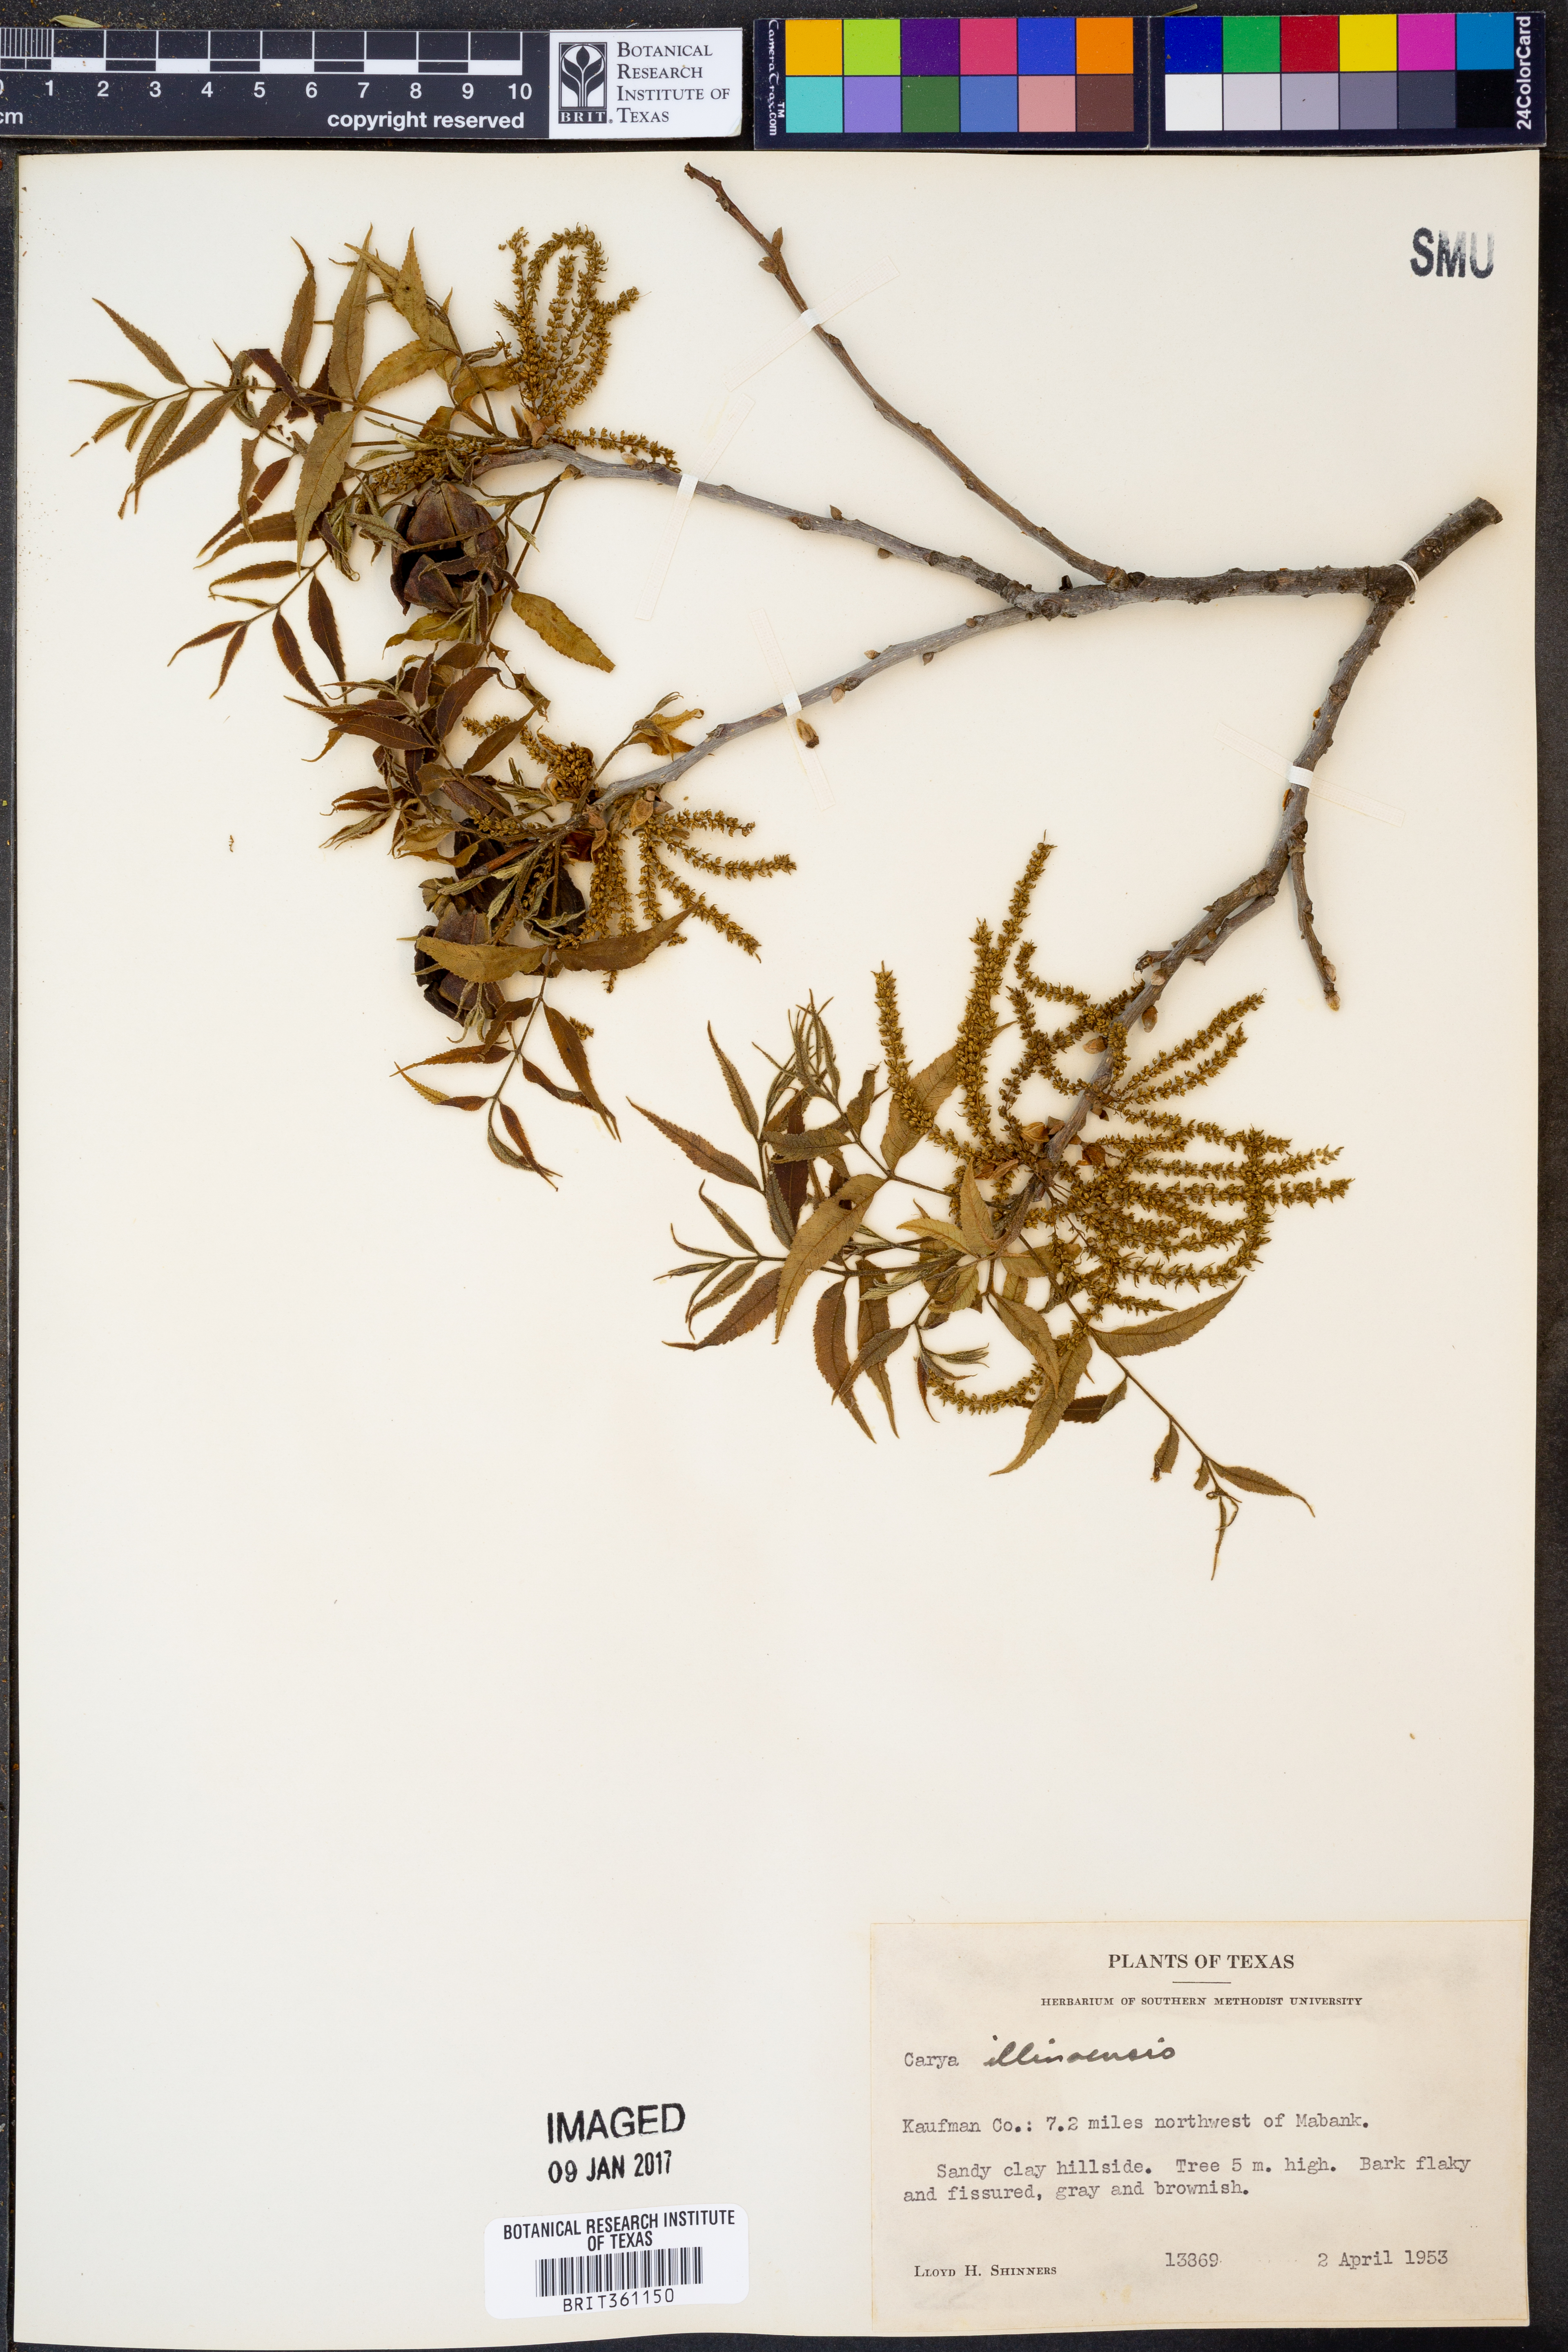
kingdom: Plantae
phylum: Tracheophyta
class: Magnoliopsida
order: Fagales
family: Juglandaceae
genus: Carya
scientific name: Carya illinoinensis
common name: Pecan
